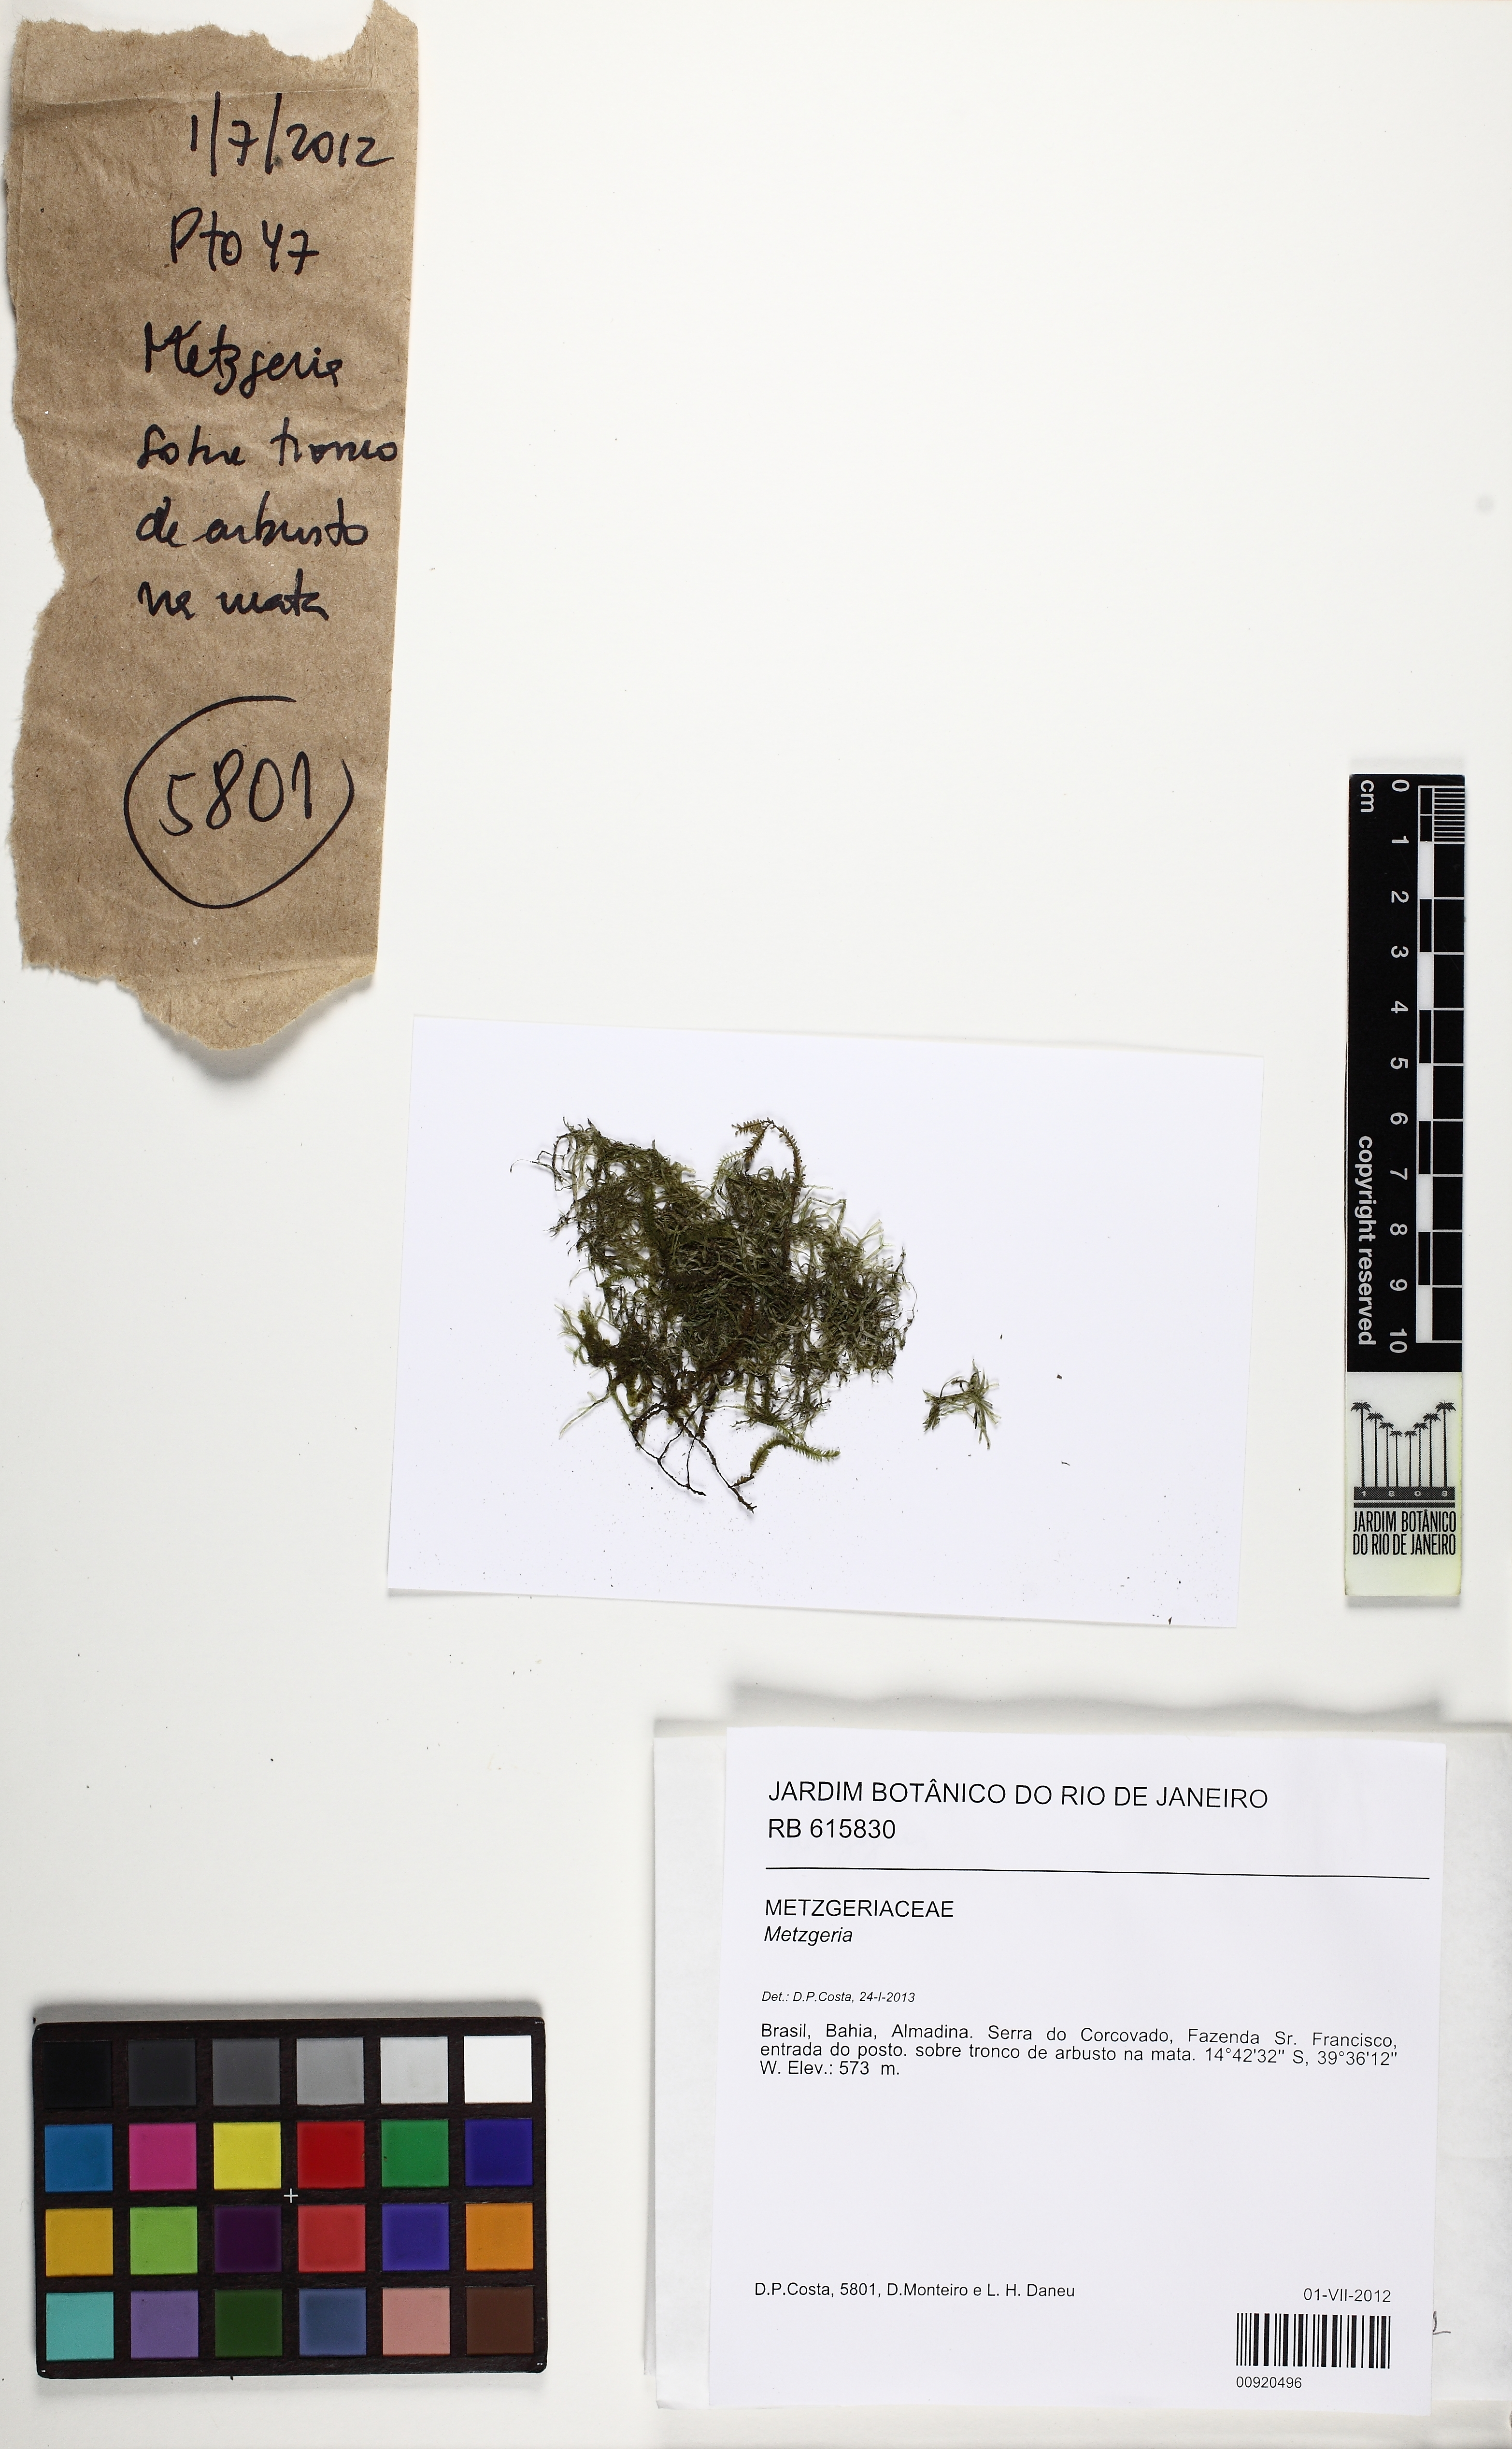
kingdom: Plantae
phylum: Marchantiophyta
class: Jungermanniopsida
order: Metzgeriales
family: Metzgeriaceae
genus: Metzgeria
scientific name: Metzgeria
